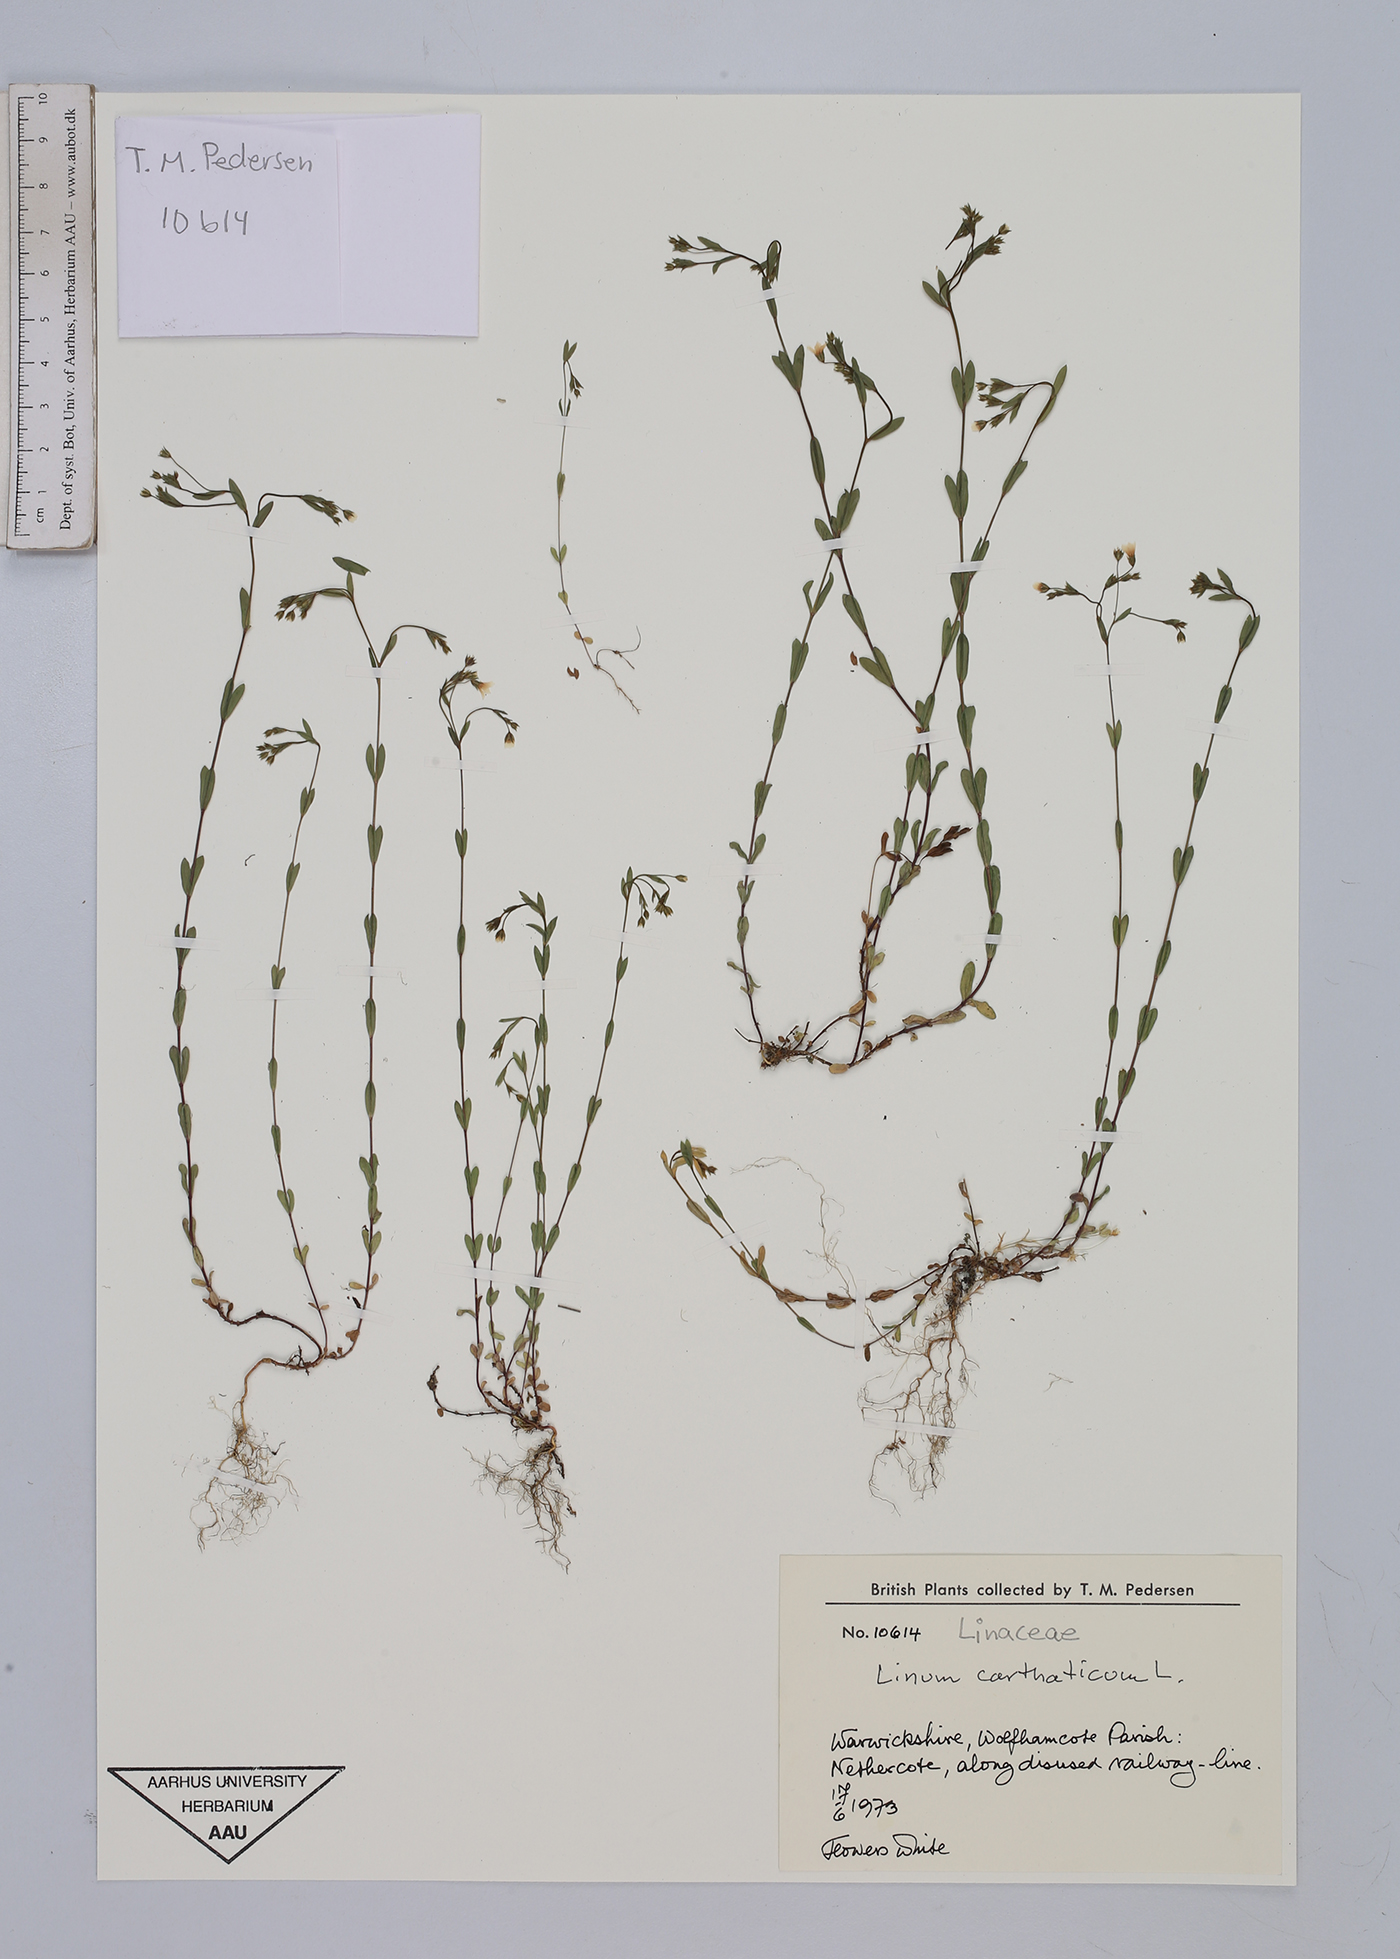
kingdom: Plantae
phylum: Tracheophyta
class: Magnoliopsida
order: Malpighiales
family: Linaceae
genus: Linum
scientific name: Linum catharticum
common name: Fairy flax
